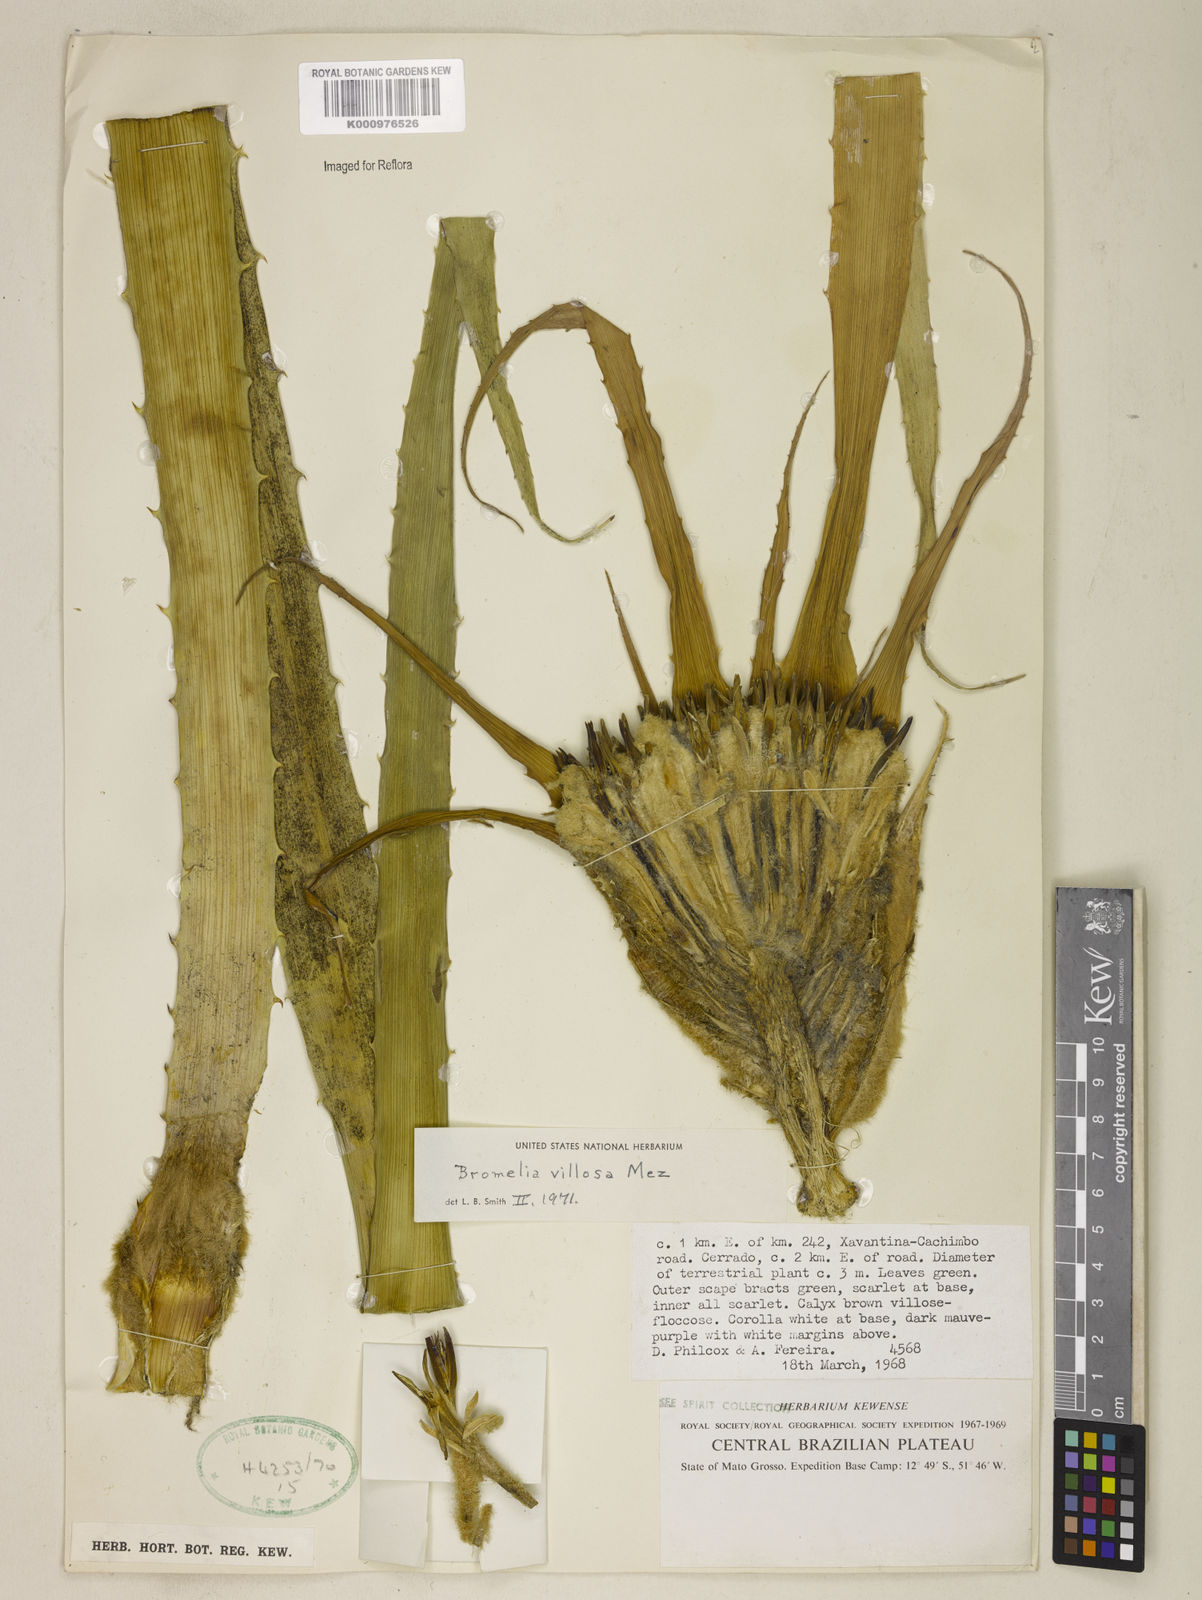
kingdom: Plantae
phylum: Tracheophyta
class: Liliopsida
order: Poales
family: Bromeliaceae
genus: Bromelia
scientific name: Bromelia villosa
